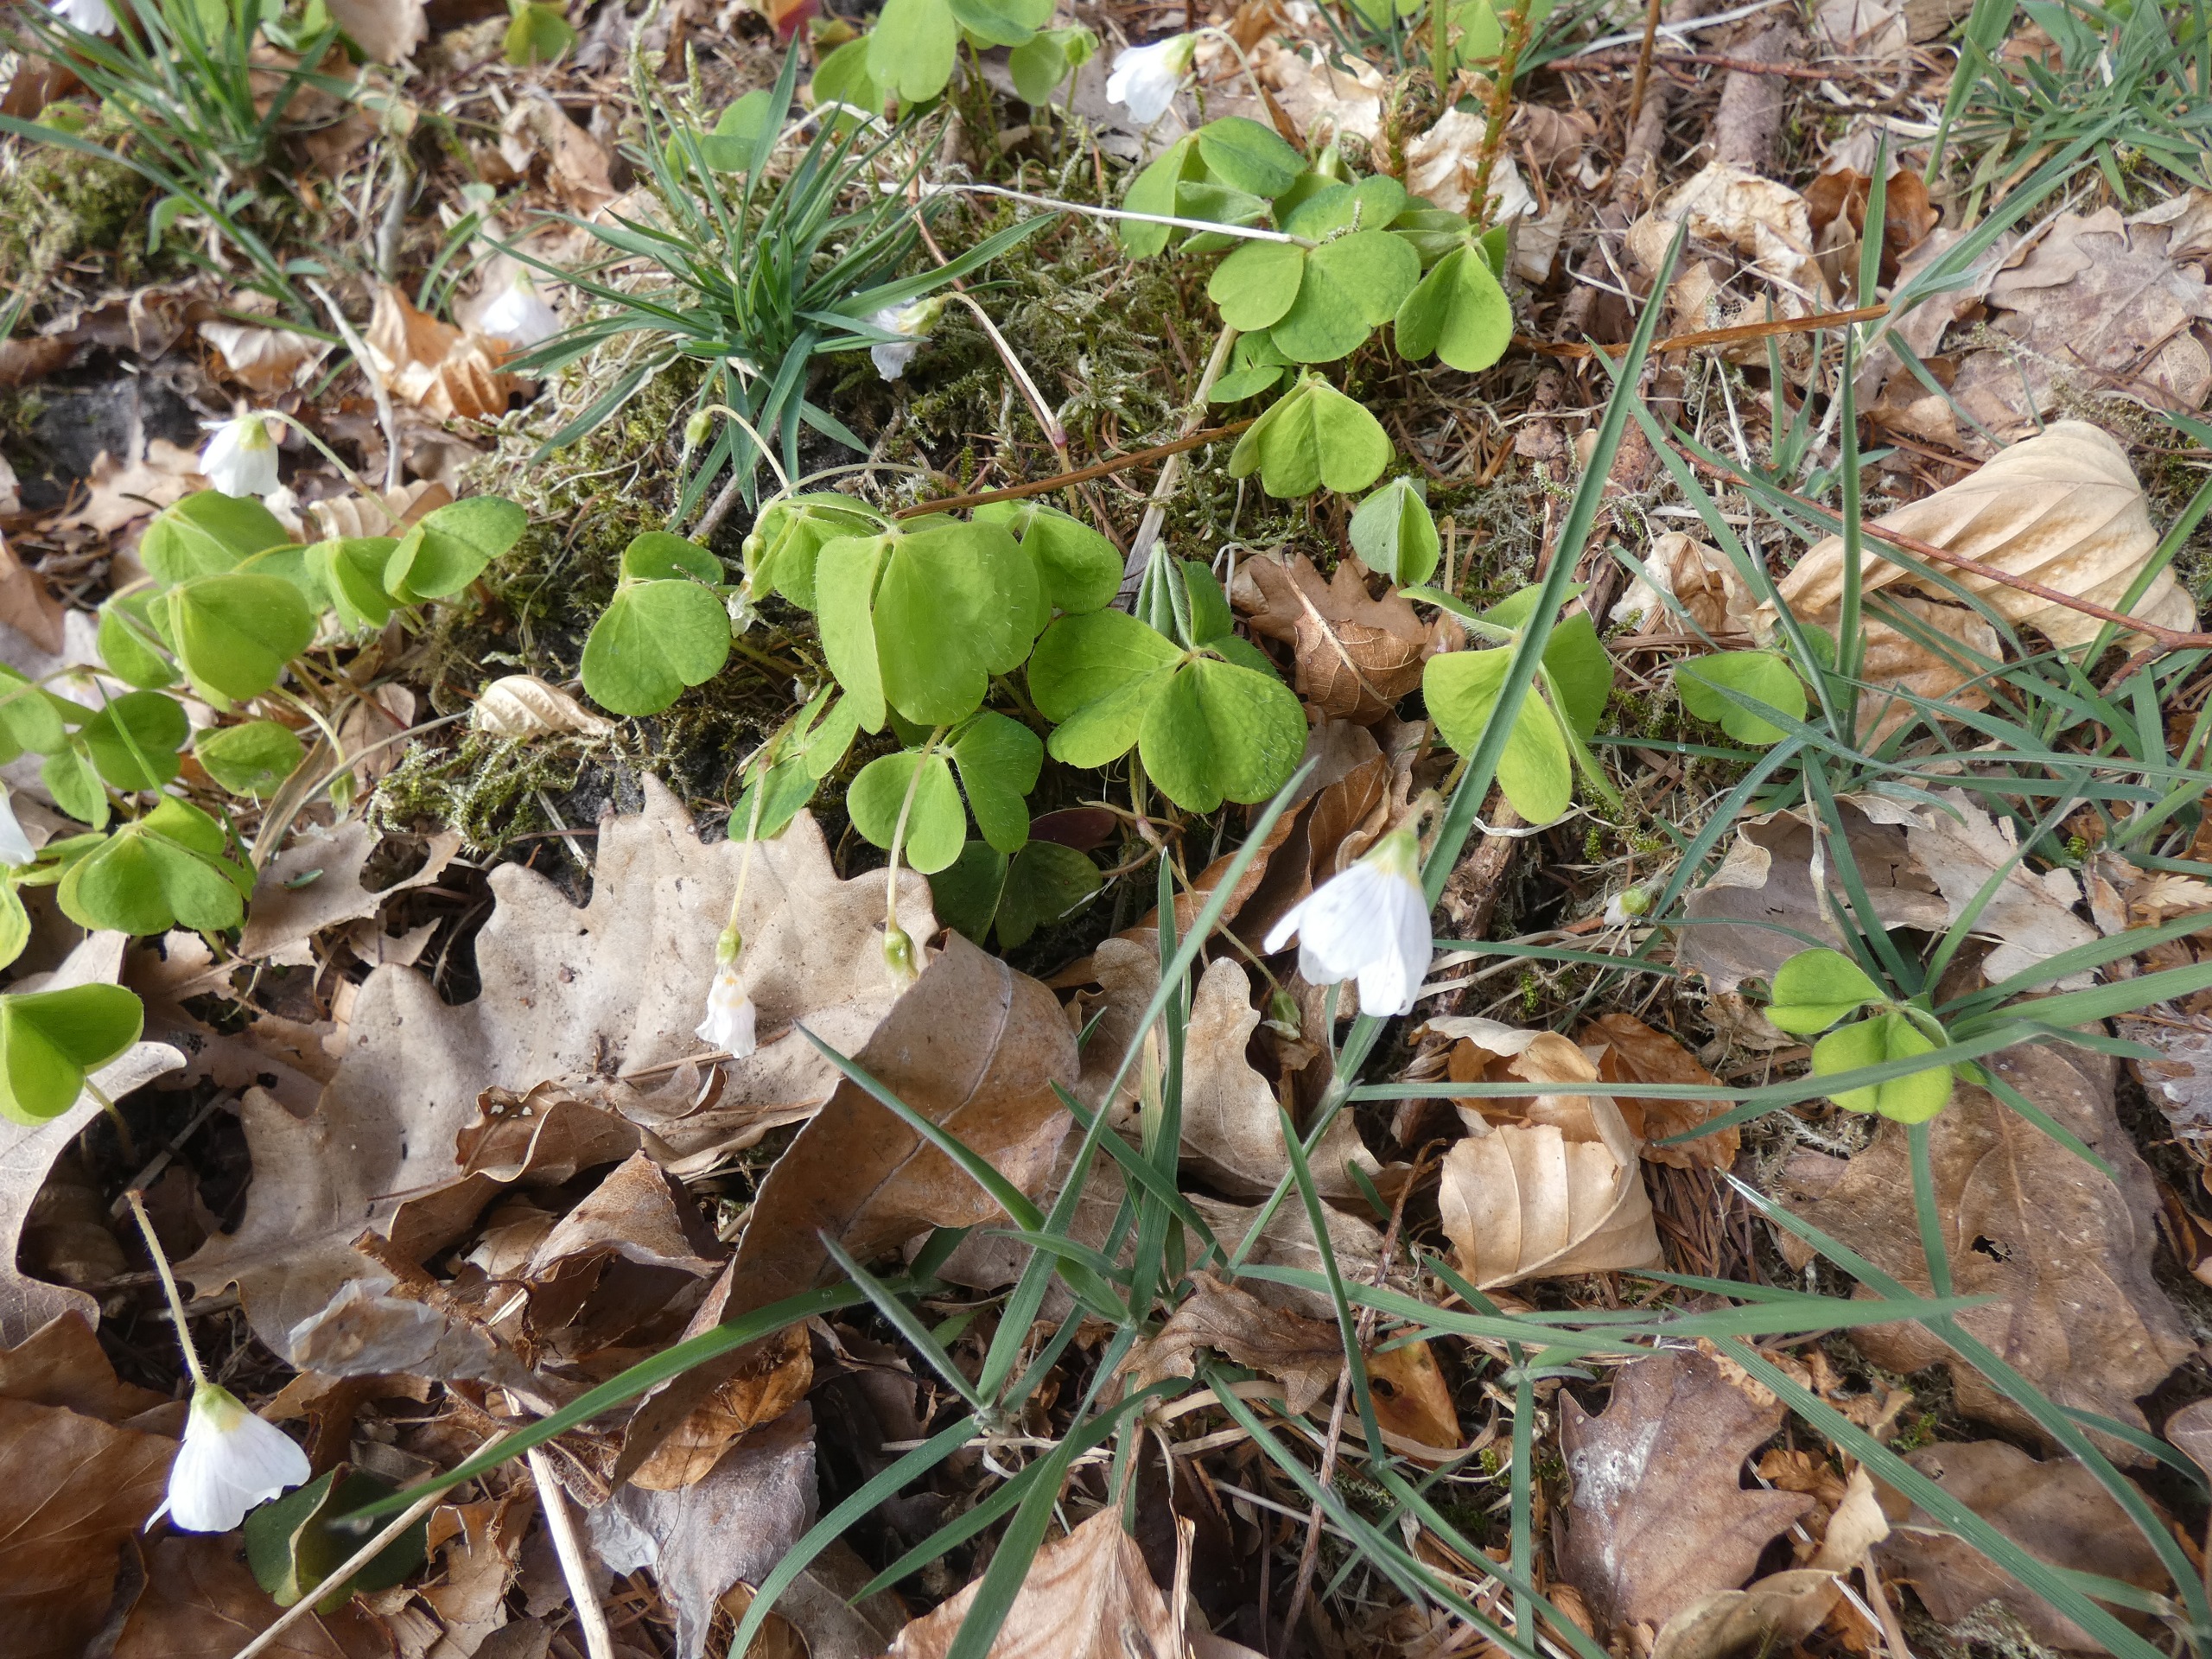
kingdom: Plantae
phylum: Tracheophyta
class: Magnoliopsida
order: Oxalidales
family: Oxalidaceae
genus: Oxalis
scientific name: Oxalis acetosella
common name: Skovsyre
